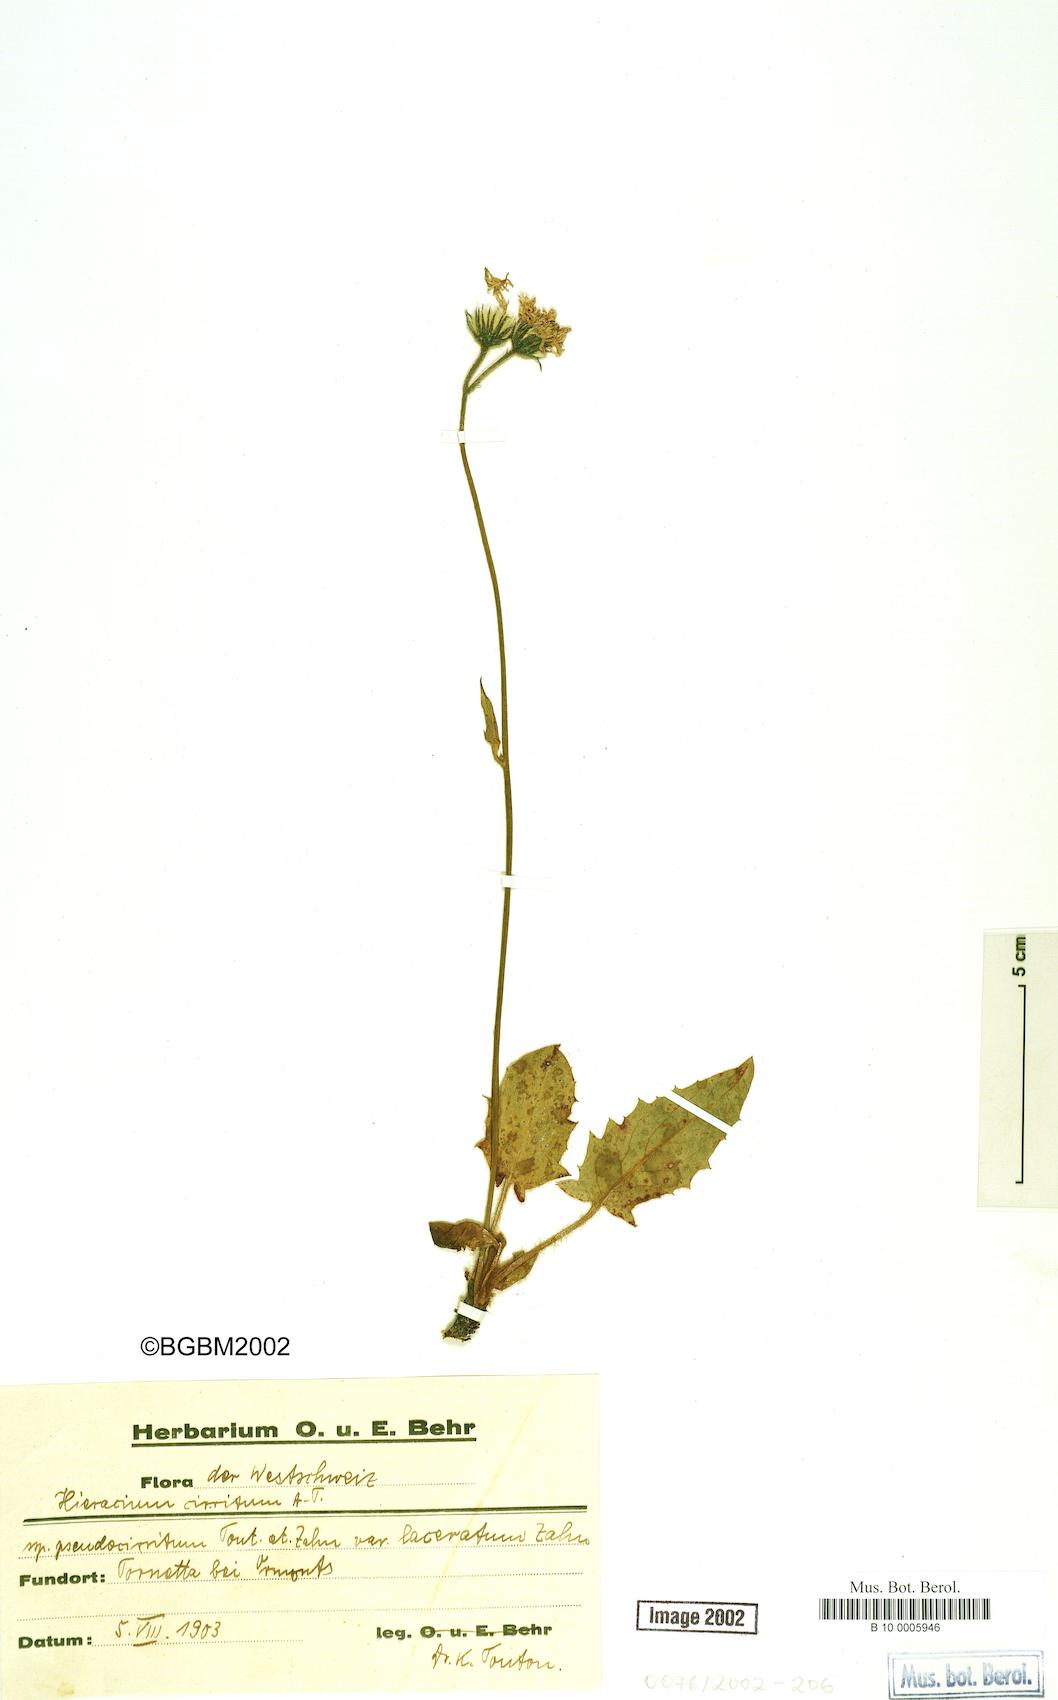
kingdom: Plantae
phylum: Tracheophyta
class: Magnoliopsida
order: Asterales
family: Asteraceae
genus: Hieracium
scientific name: Hieracium bifidum
